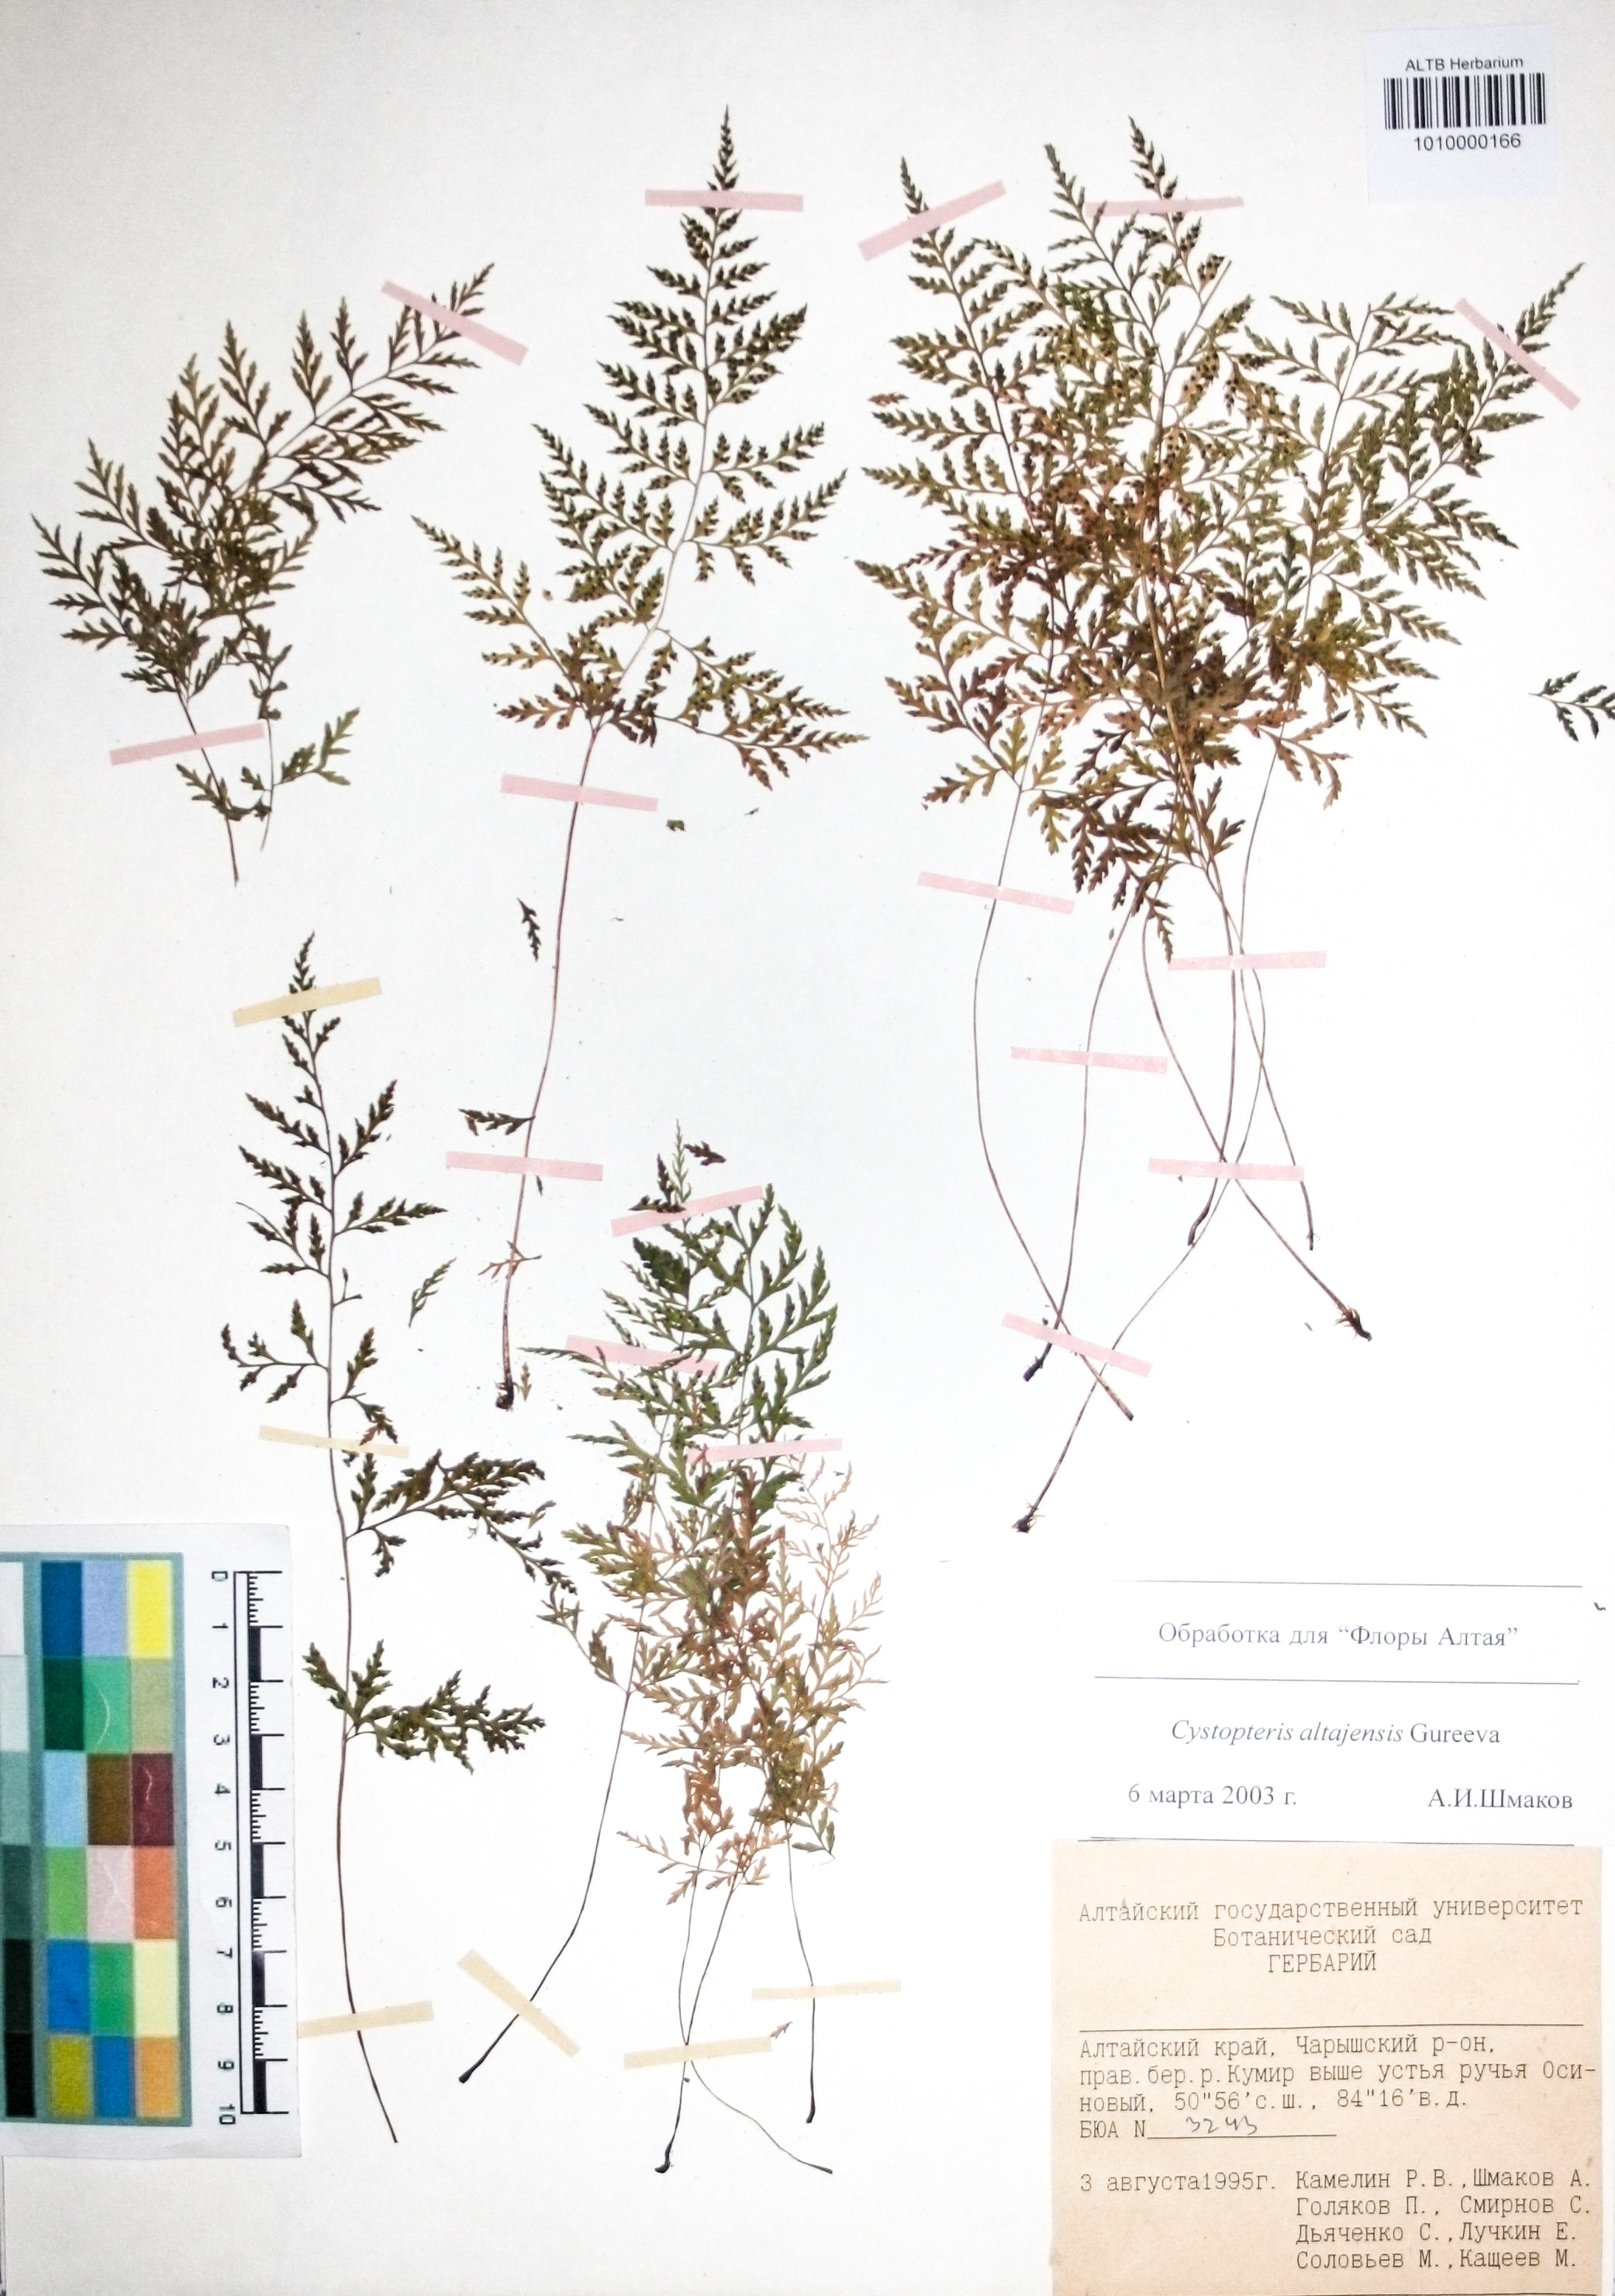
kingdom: Plantae
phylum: Tracheophyta
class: Polypodiopsida
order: Polypodiales
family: Cystopteridaceae
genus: Cystopteris
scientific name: Cystopteris diaphana
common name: Greenish bladder-fern
